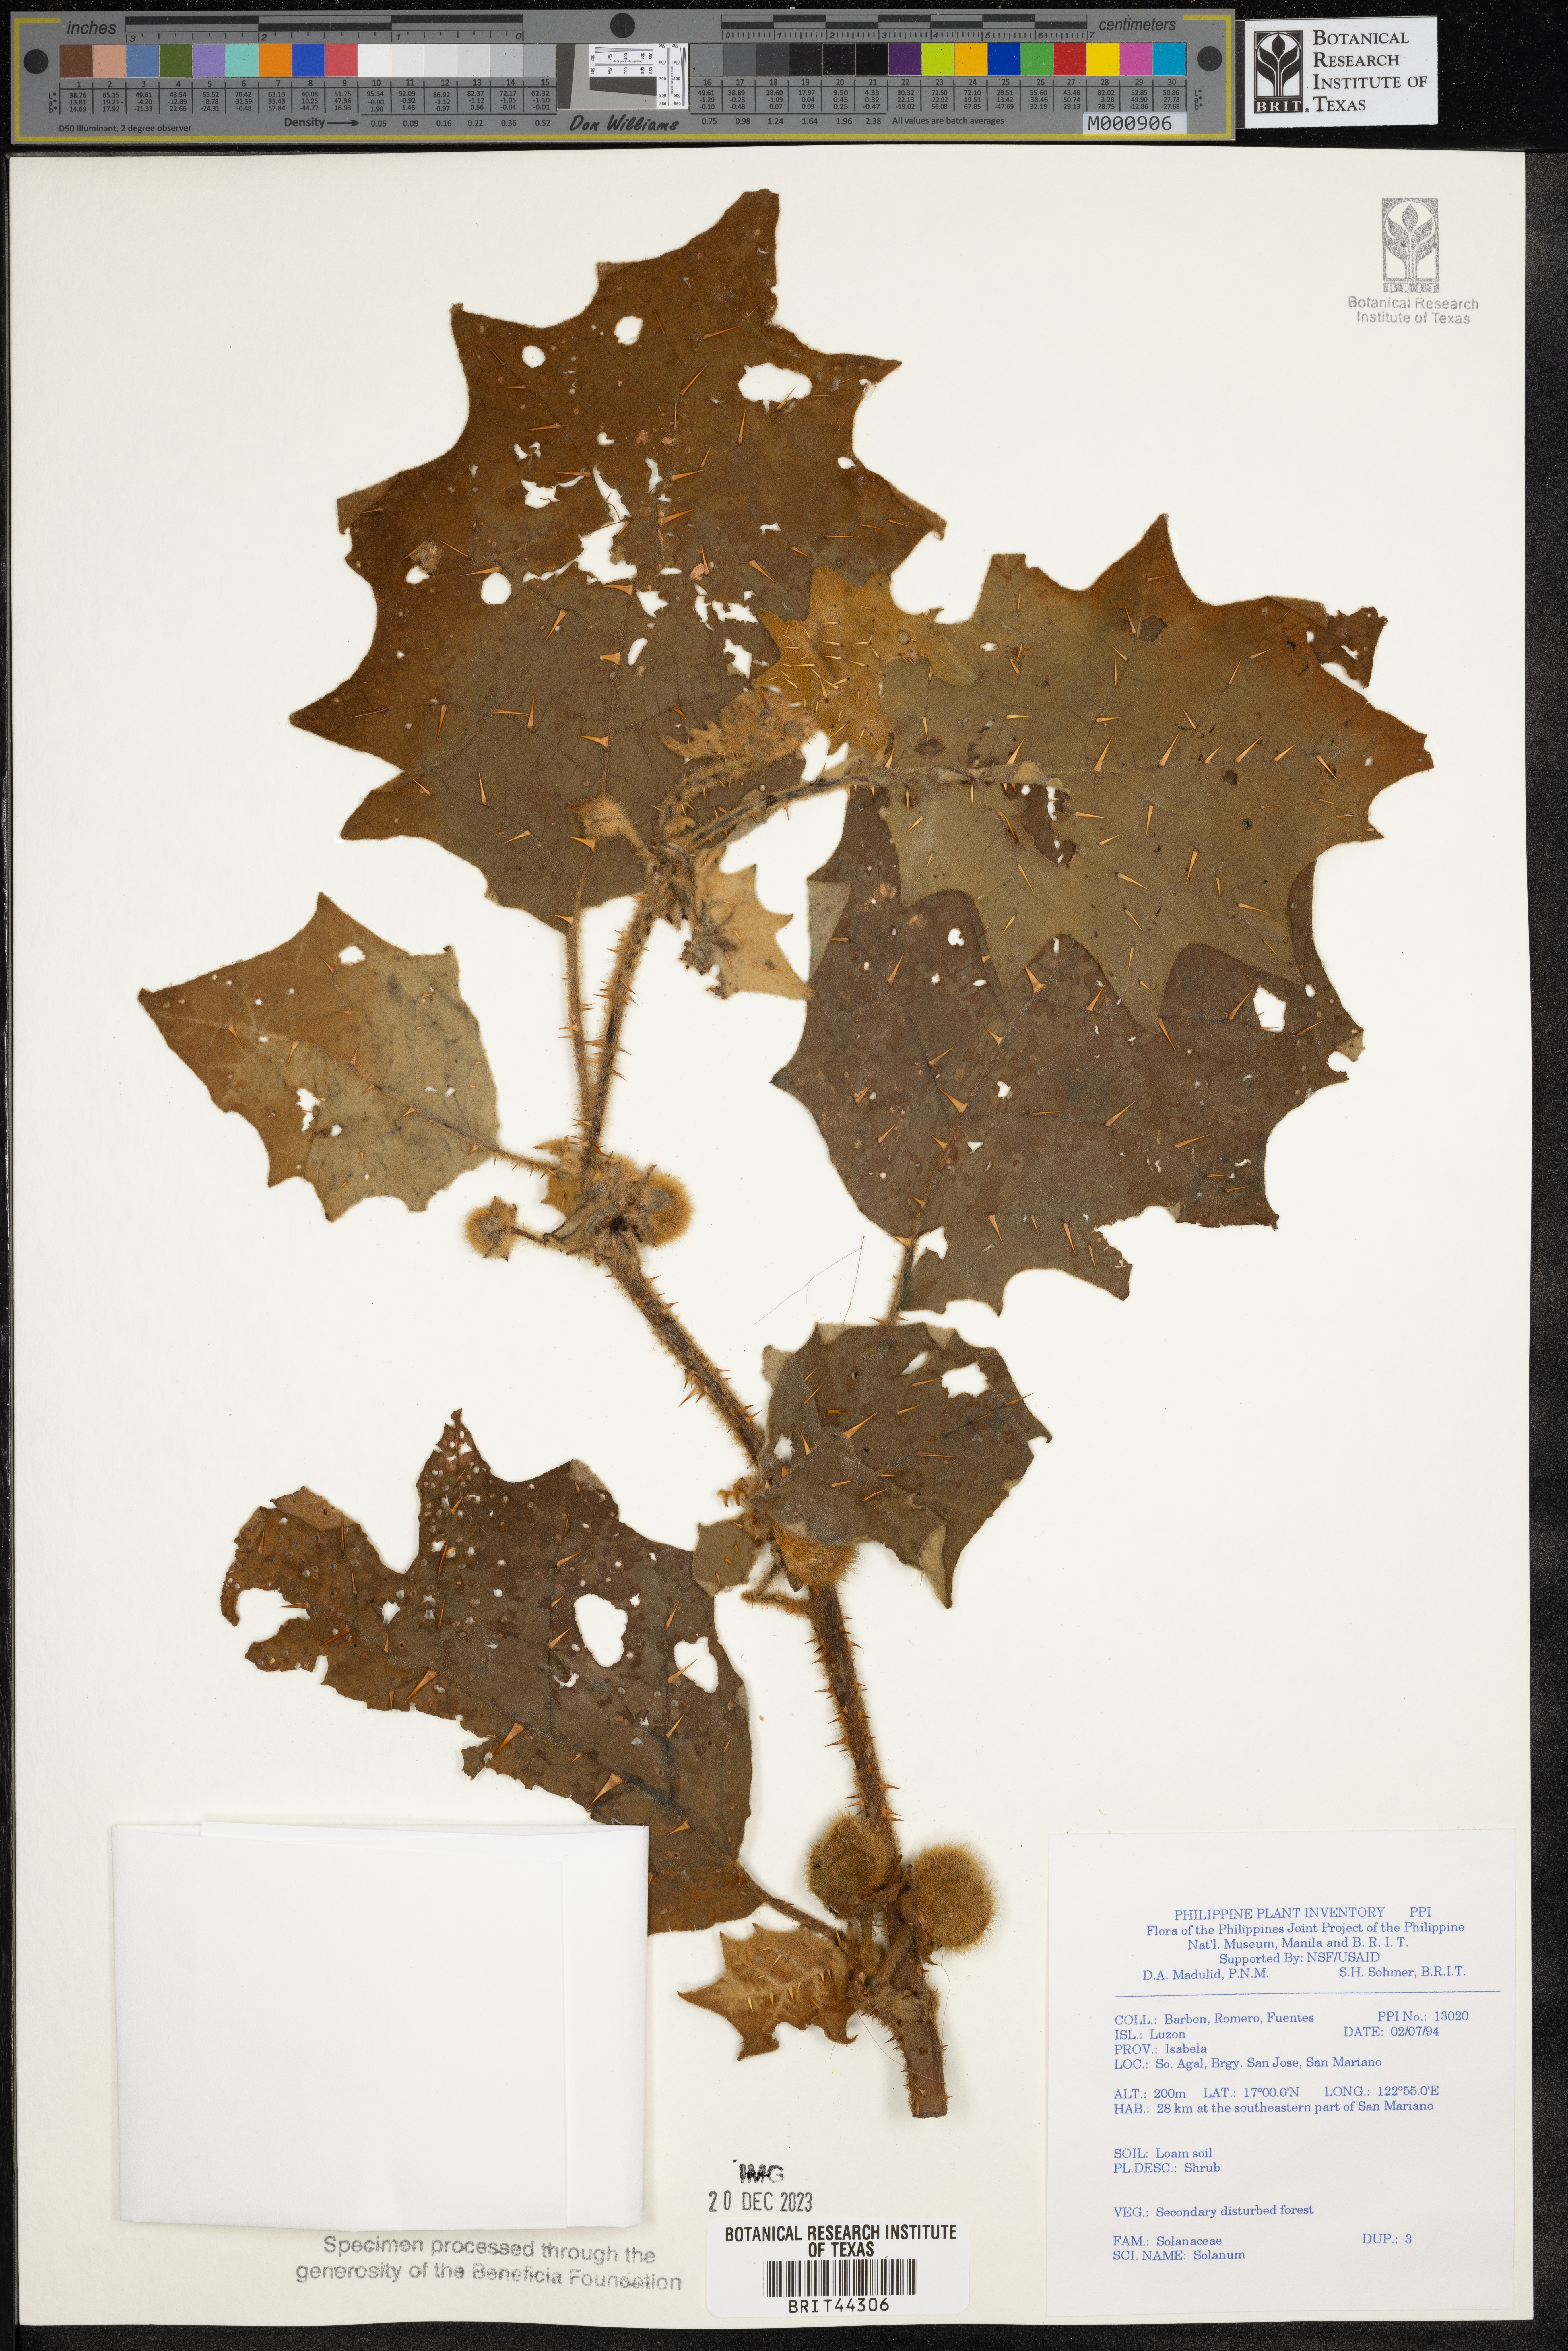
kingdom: Plantae
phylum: Tracheophyta
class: Magnoliopsida
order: Solanales
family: Solanaceae
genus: Solanum
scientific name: Solanum
